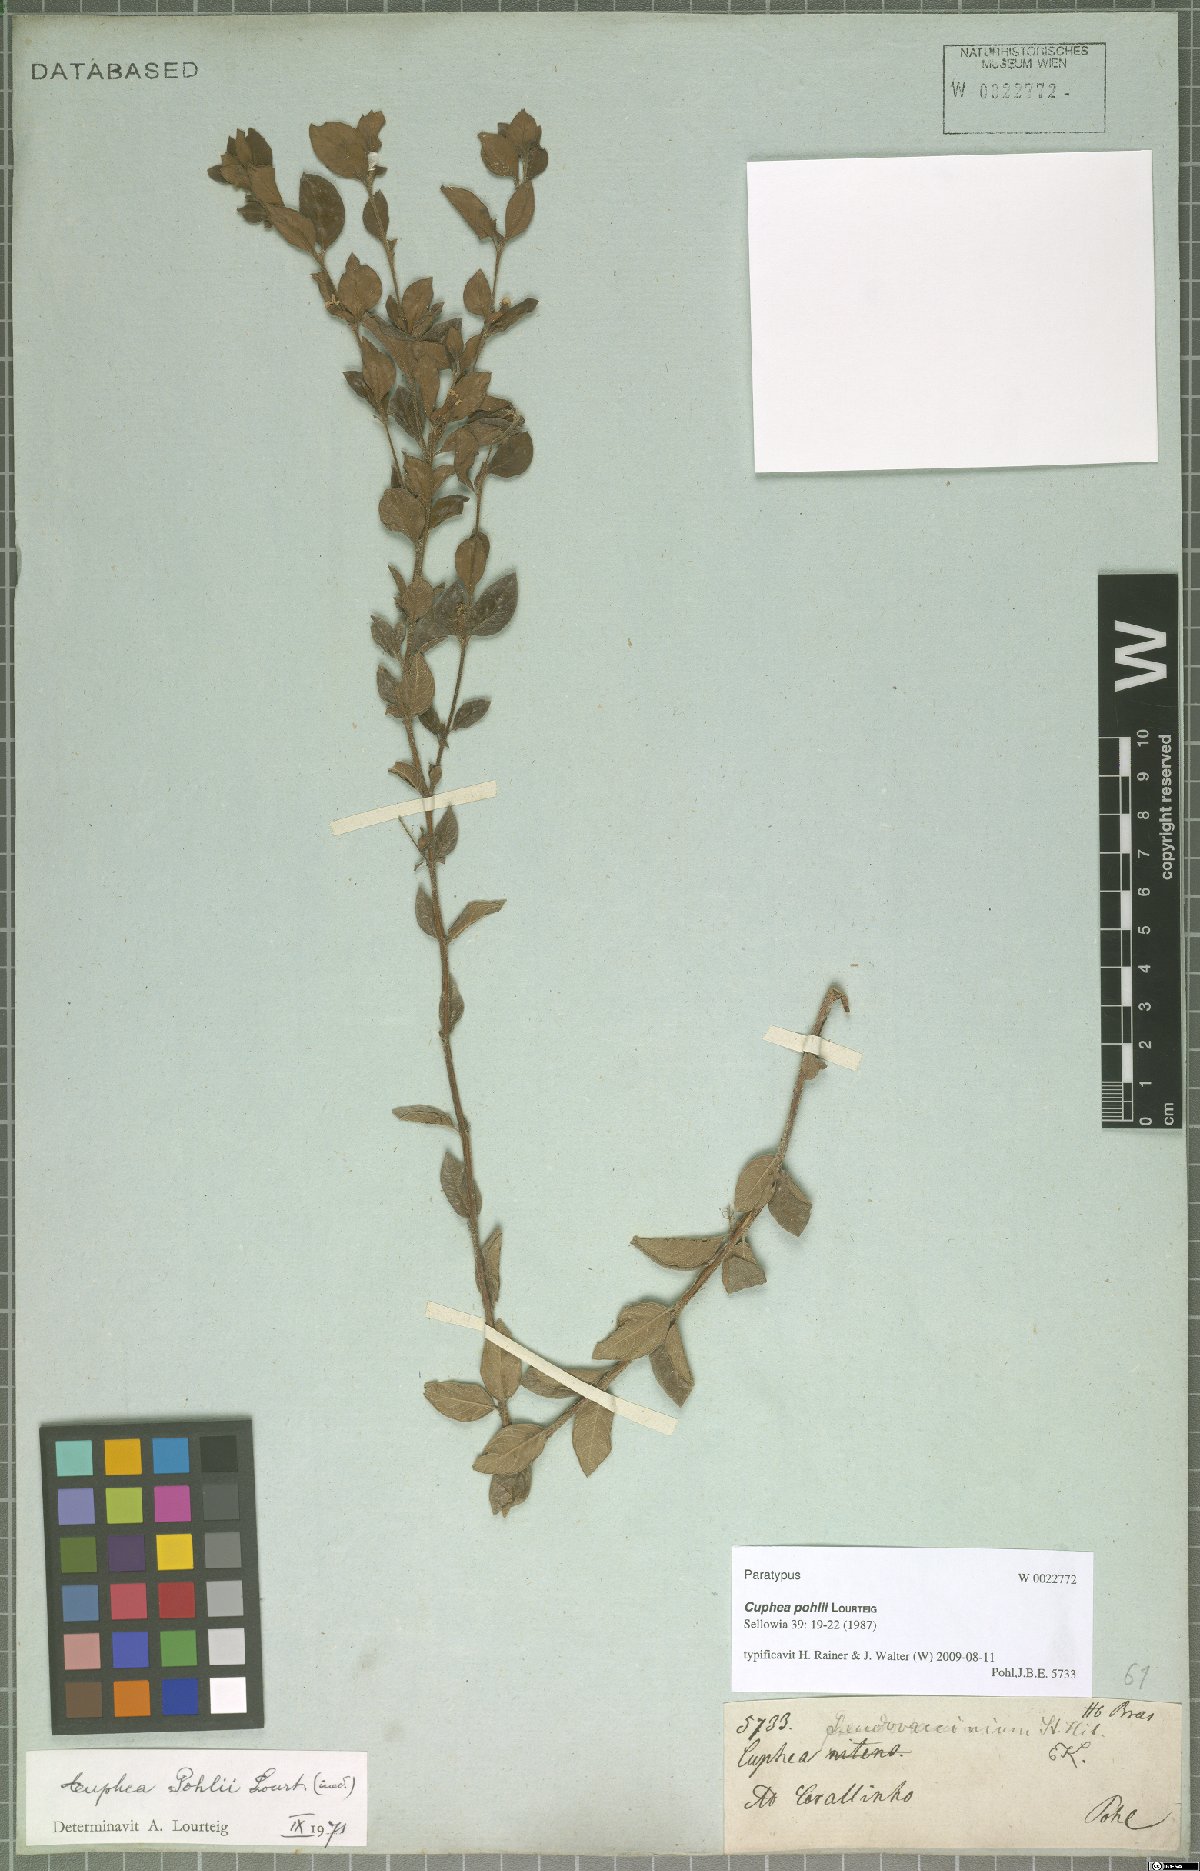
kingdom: Plantae
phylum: Tracheophyta
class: Magnoliopsida
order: Myrtales
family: Lythraceae
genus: Cuphea
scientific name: Cuphea pohlii
